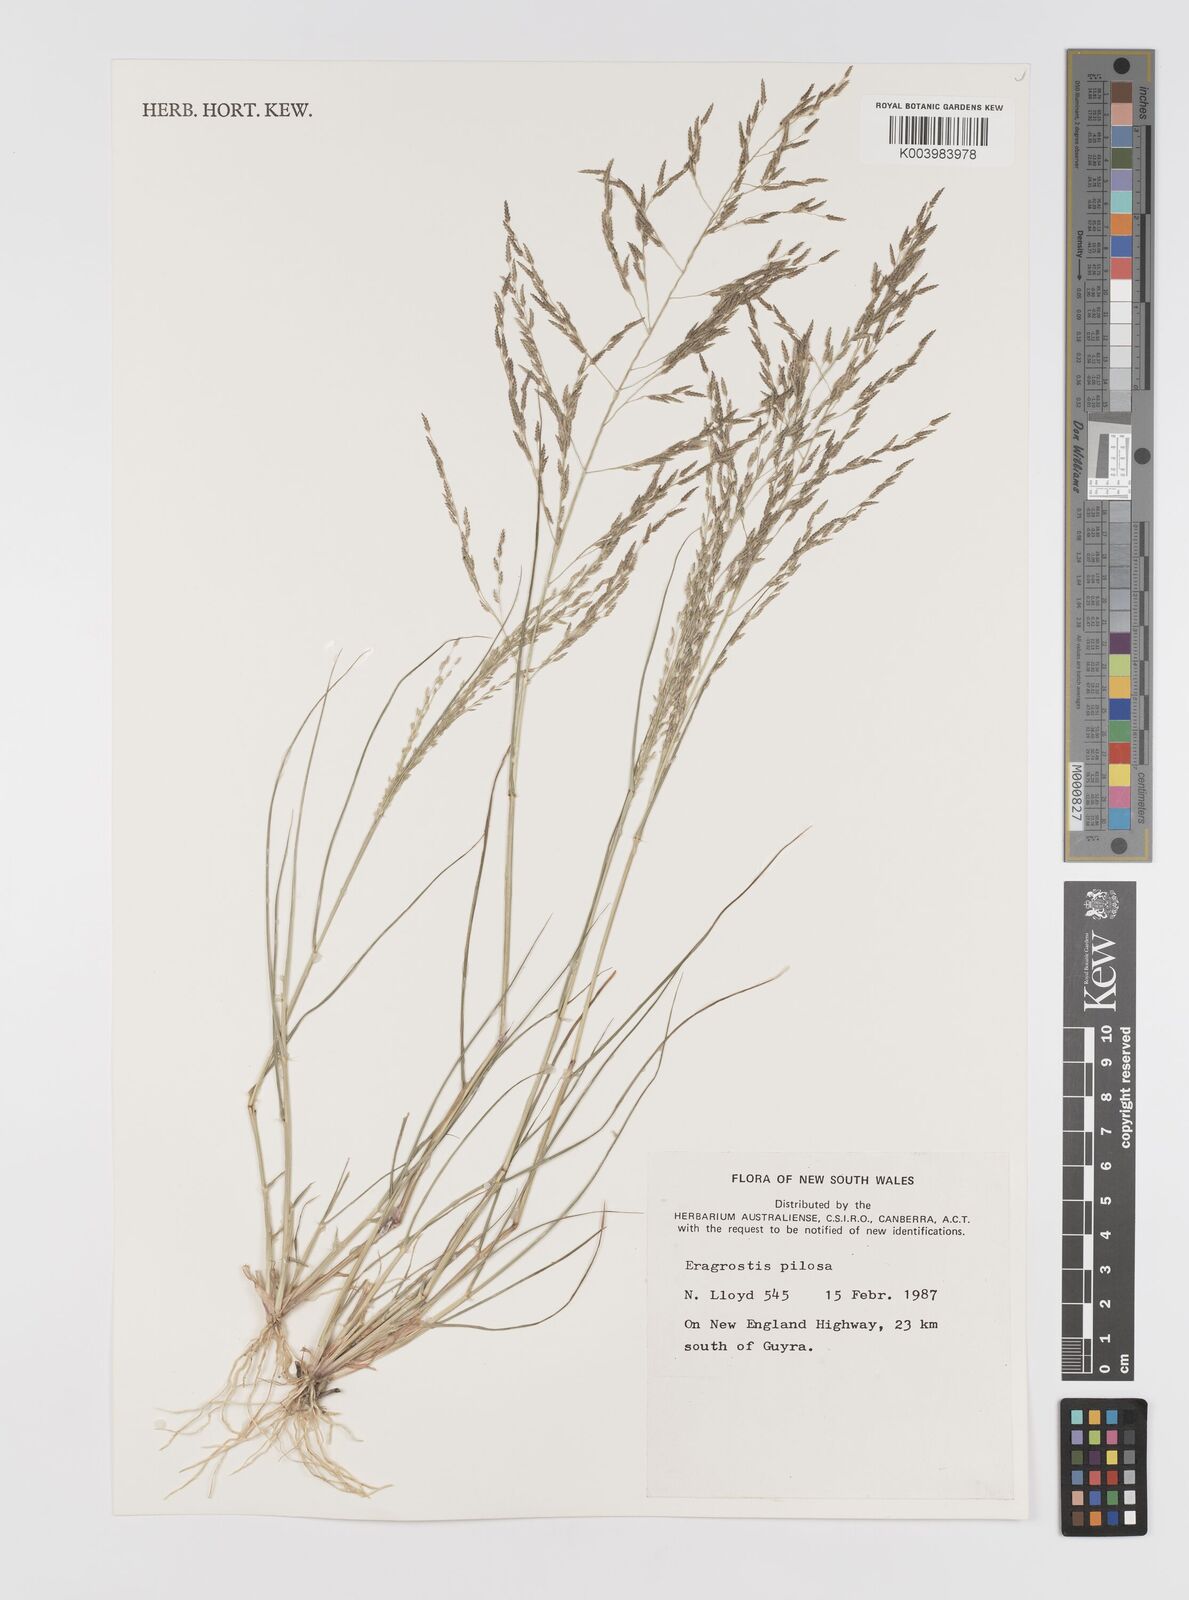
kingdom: Plantae
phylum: Tracheophyta
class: Liliopsida
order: Poales
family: Poaceae
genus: Eragrostis
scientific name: Eragrostis pilosa
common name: Indian lovegrass
